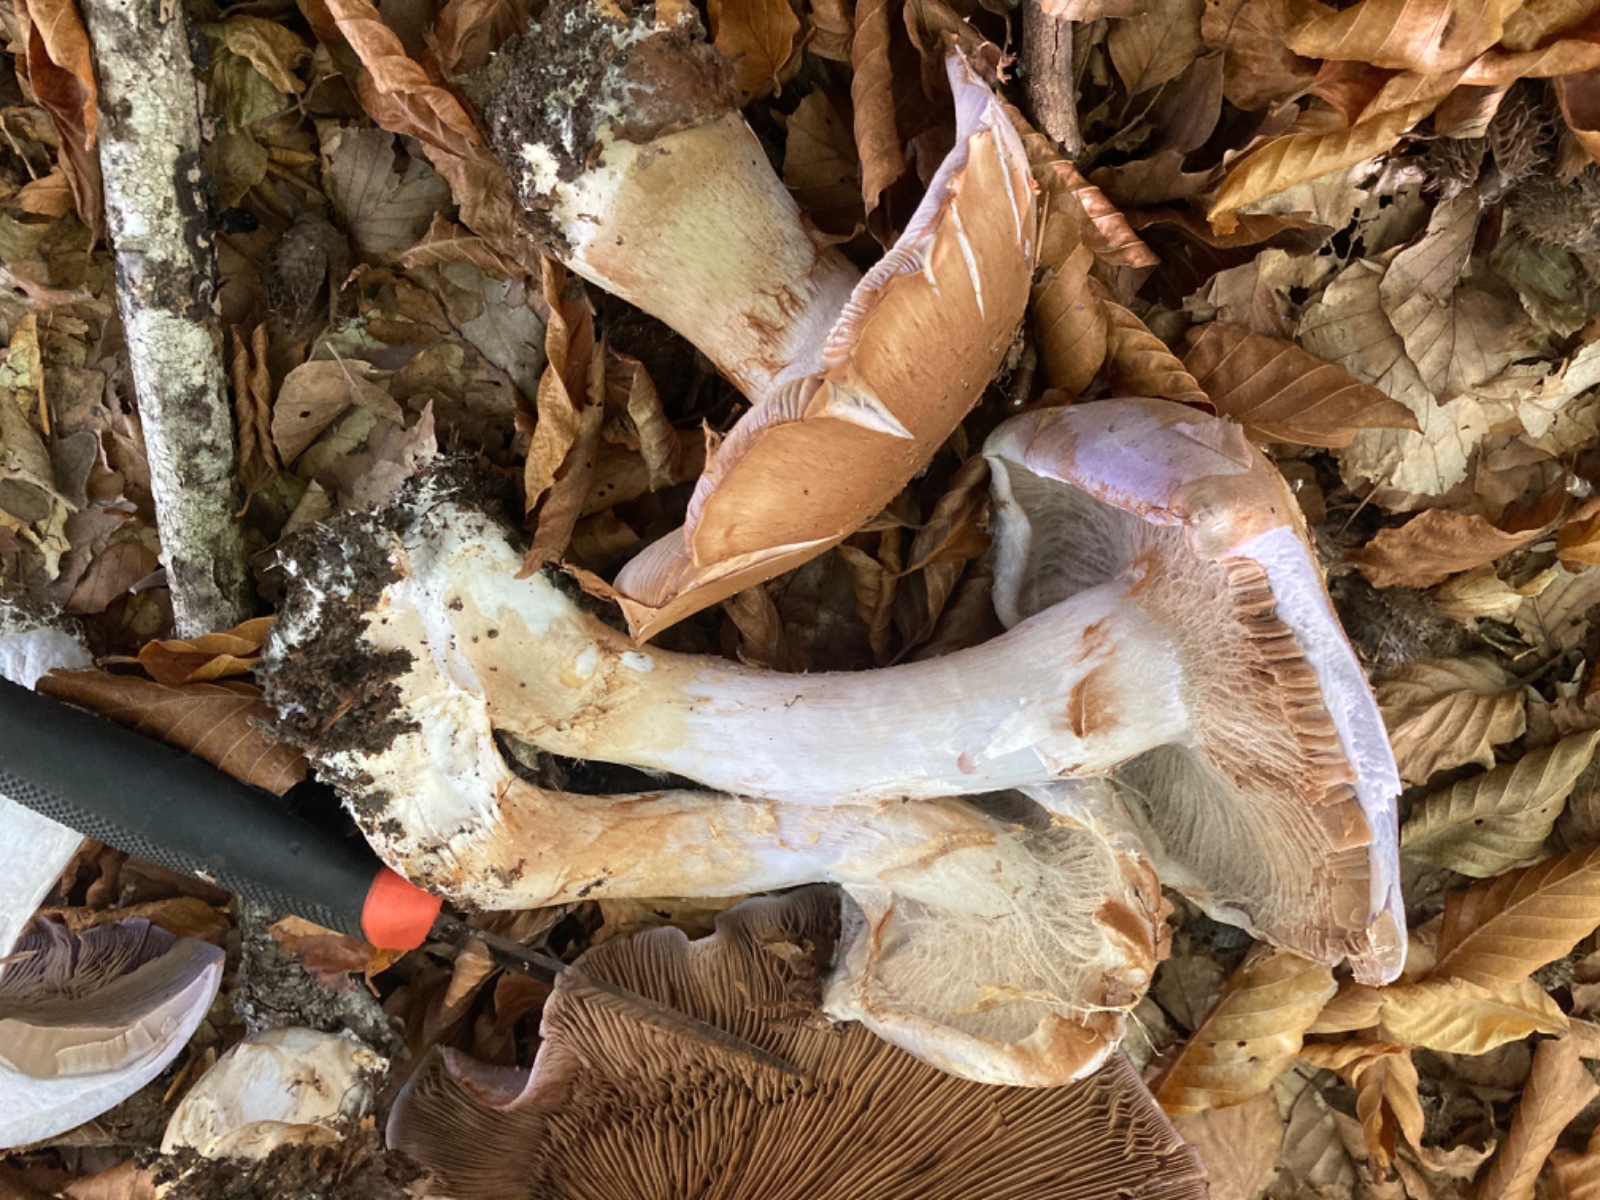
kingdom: Fungi
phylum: Basidiomycota
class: Agaricomycetes
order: Agaricales
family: Cortinariaceae
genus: Cortinarius
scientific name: Cortinarius largus
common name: violetrandet slørhat
